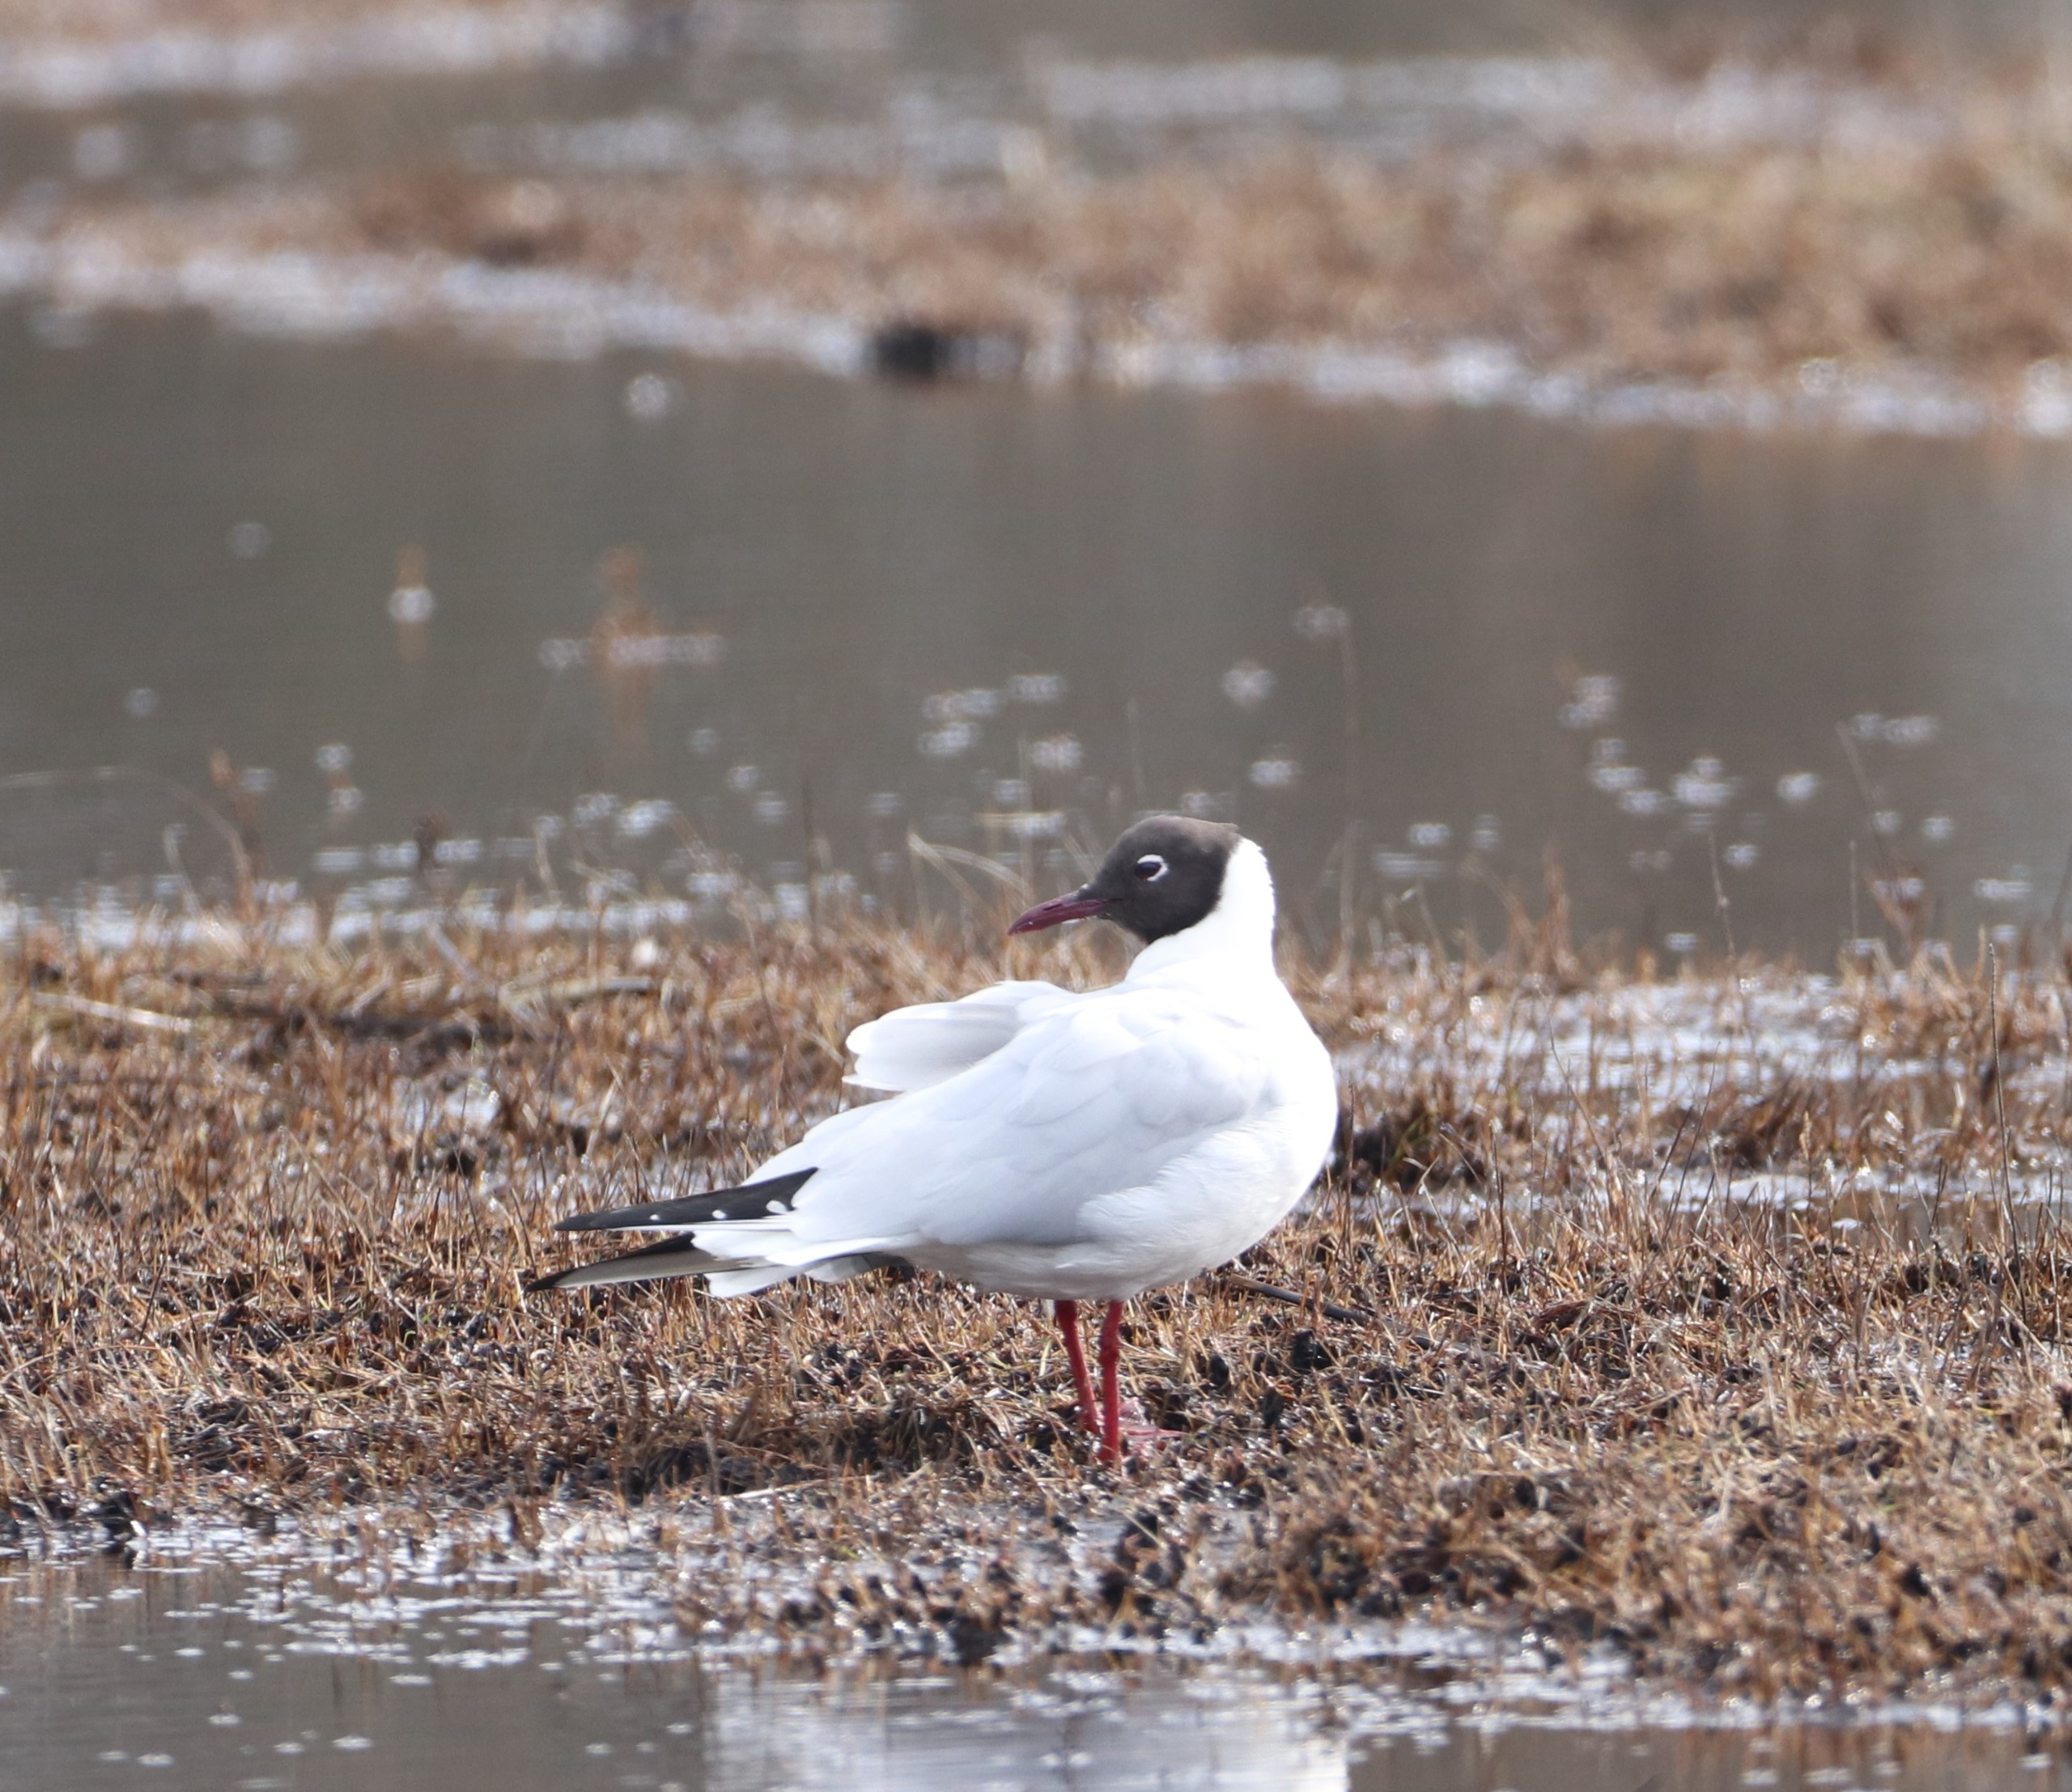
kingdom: Animalia
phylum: Chordata
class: Aves
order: Charadriiformes
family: Laridae
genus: Chroicocephalus
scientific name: Chroicocephalus ridibundus
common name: Hættemåge
